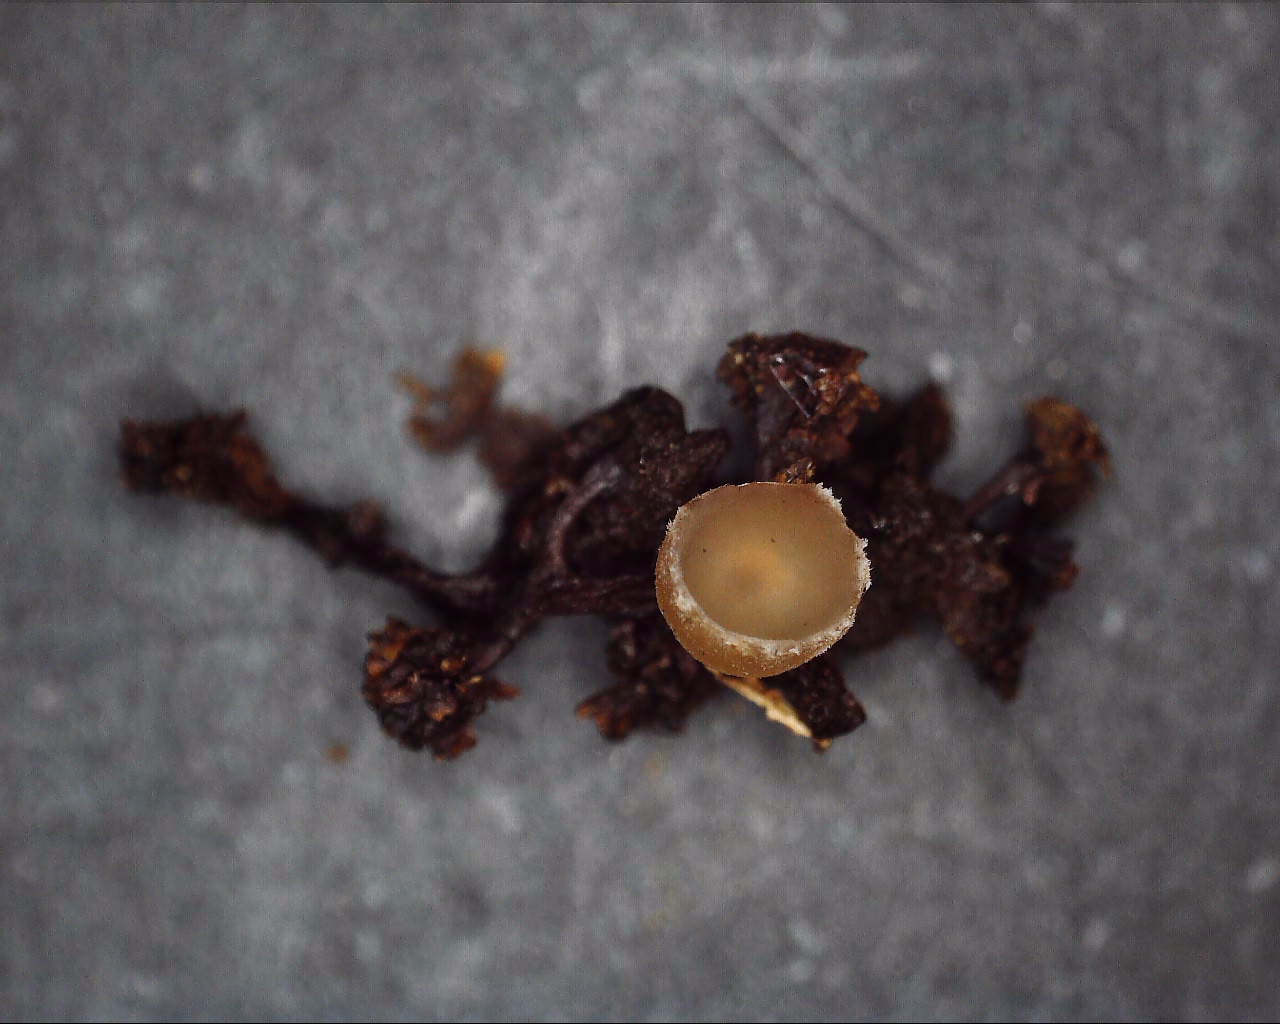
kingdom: Fungi
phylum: Ascomycota
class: Leotiomycetes
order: Helotiales
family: Sclerotiniaceae
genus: Ciboria
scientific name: Ciboria amentacea
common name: ellerakle-knoldskive
